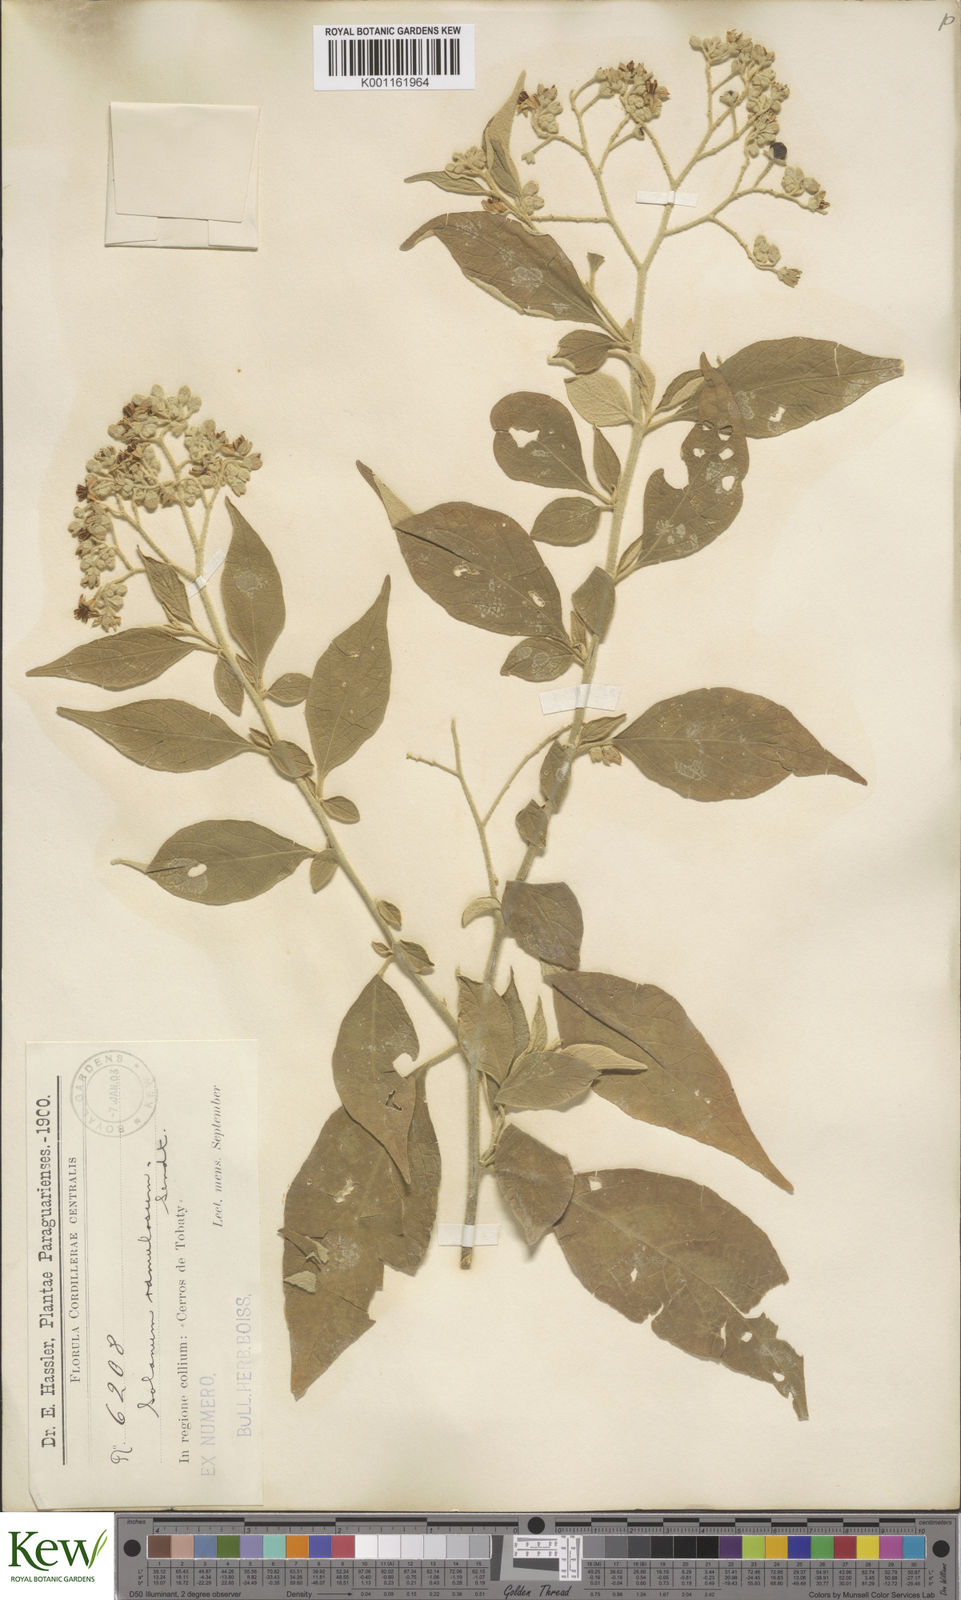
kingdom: Plantae
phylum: Tracheophyta
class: Magnoliopsida
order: Solanales
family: Solanaceae
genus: Solanum
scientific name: Solanum ramulosum
